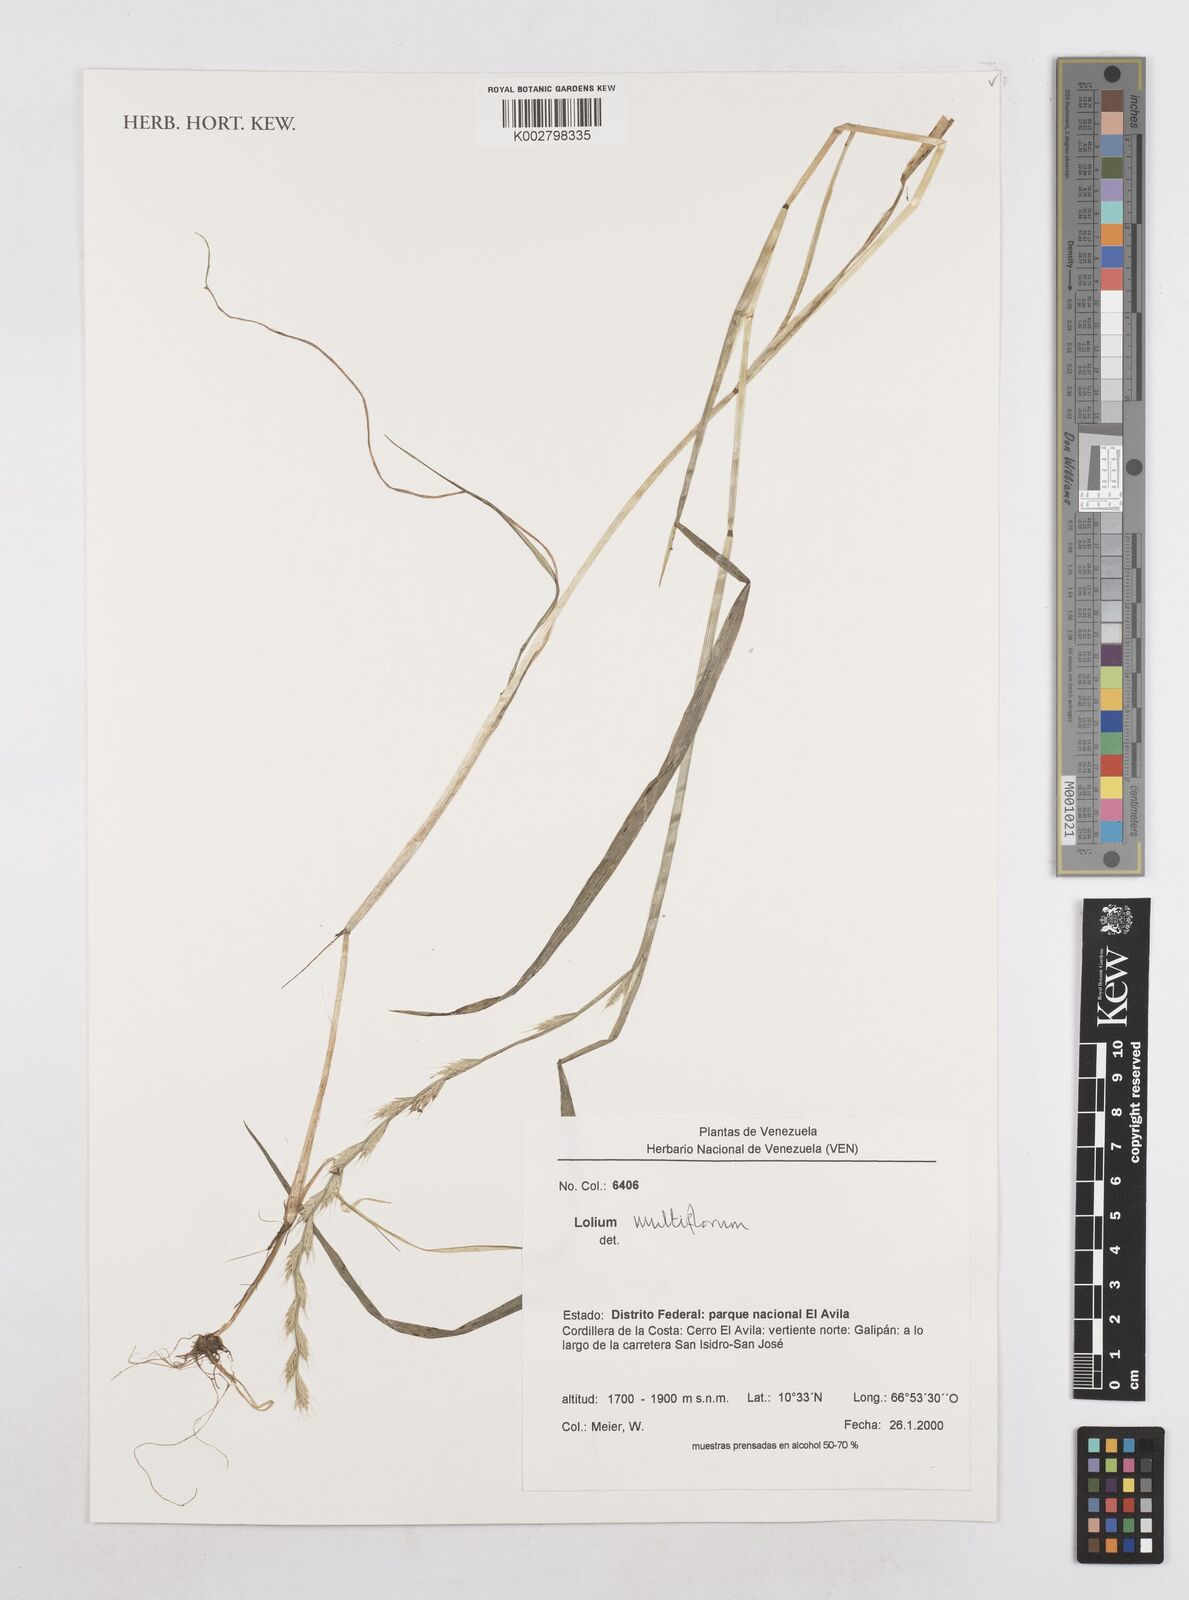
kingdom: Plantae
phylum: Tracheophyta
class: Liliopsida
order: Poales
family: Poaceae
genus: Lolium
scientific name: Lolium multiflorum
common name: Annual ryegrass
